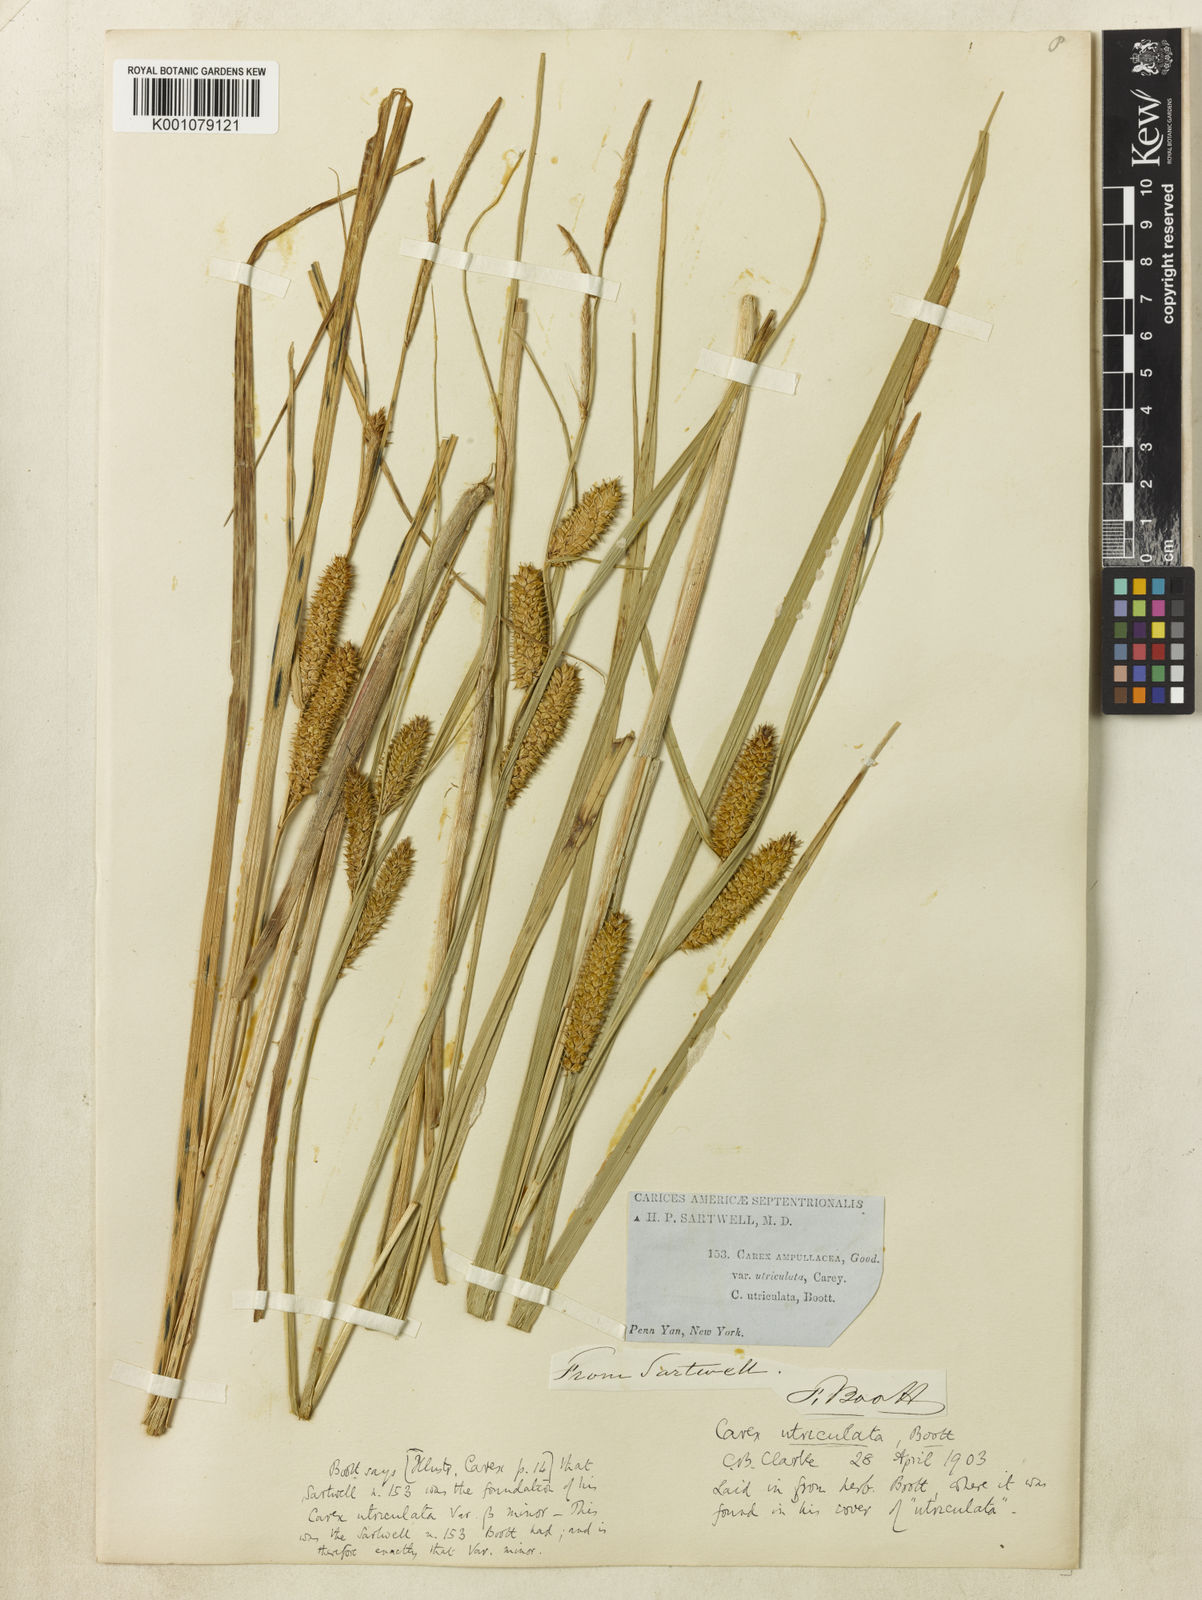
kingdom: Plantae
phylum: Tracheophyta
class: Liliopsida
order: Poales
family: Cyperaceae
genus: Carex
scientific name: Carex rostrata
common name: Bottle sedge
